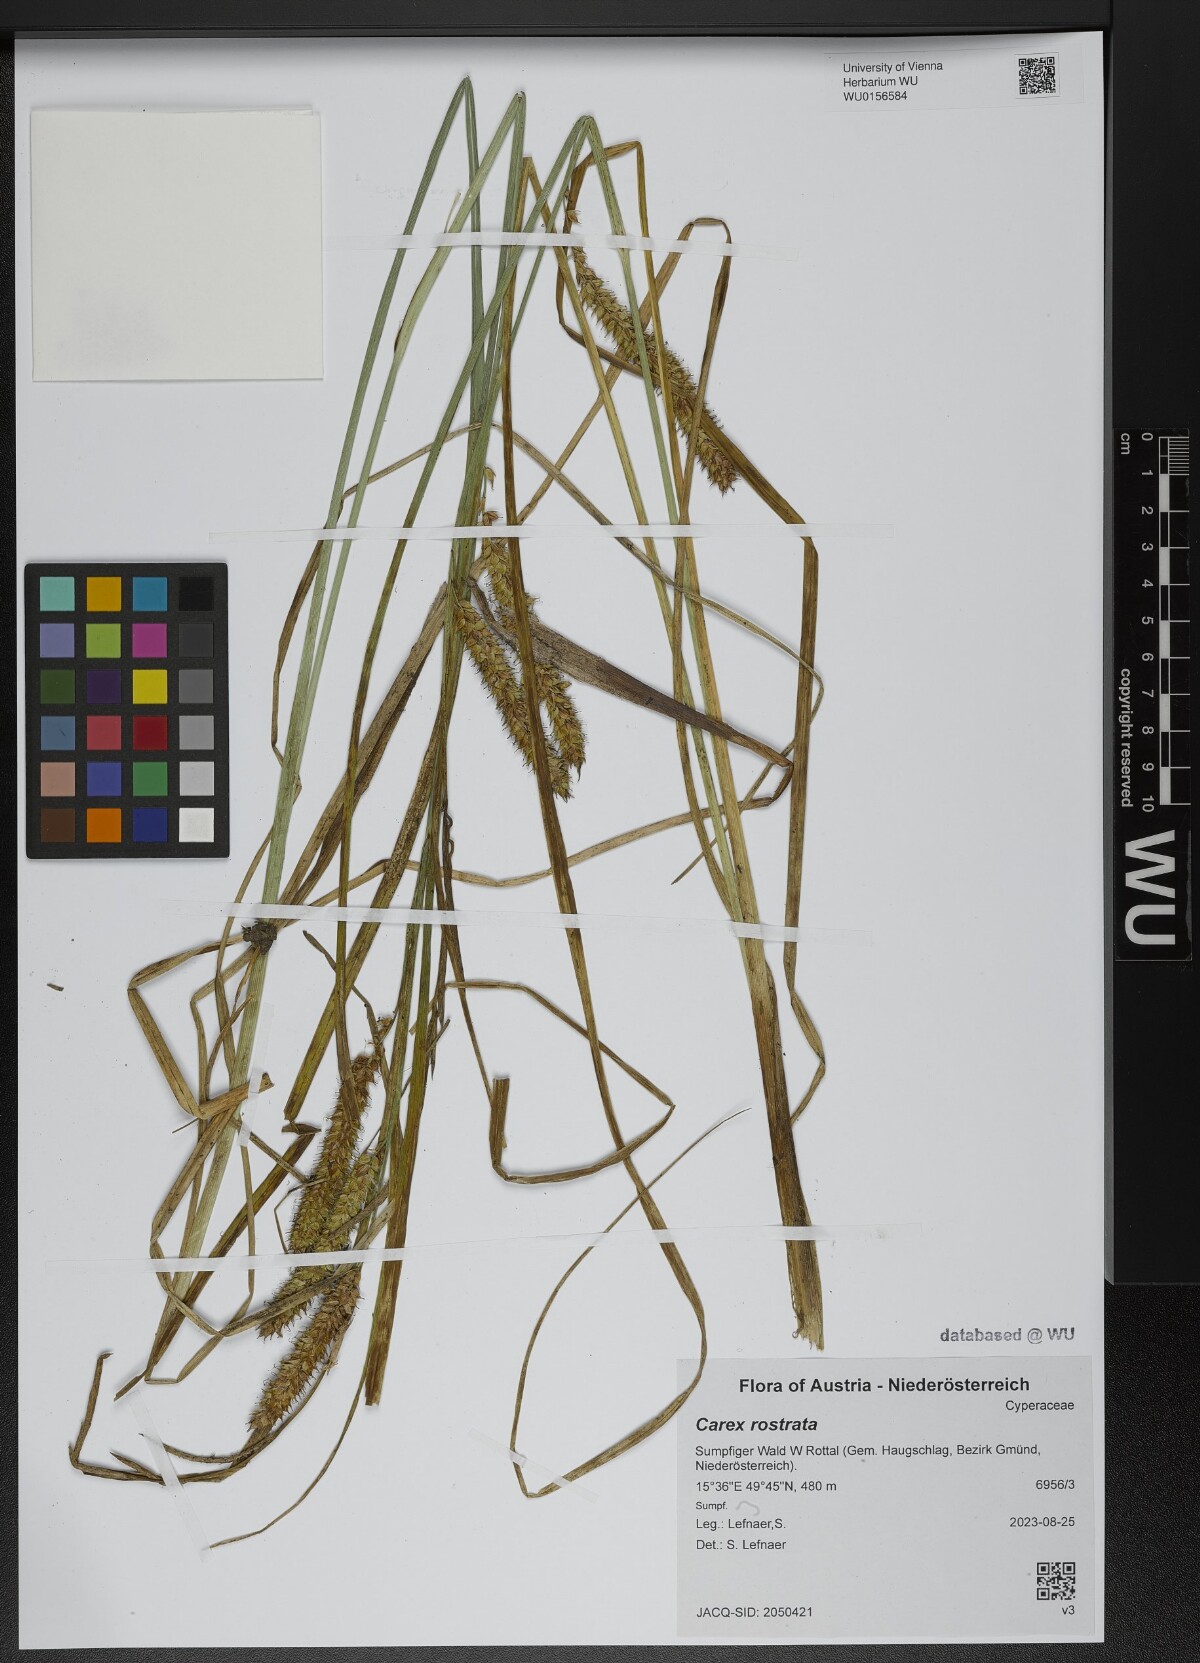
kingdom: Plantae
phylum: Tracheophyta
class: Liliopsida
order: Poales
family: Cyperaceae
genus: Carex
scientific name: Carex rostrata
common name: Bottle sedge
